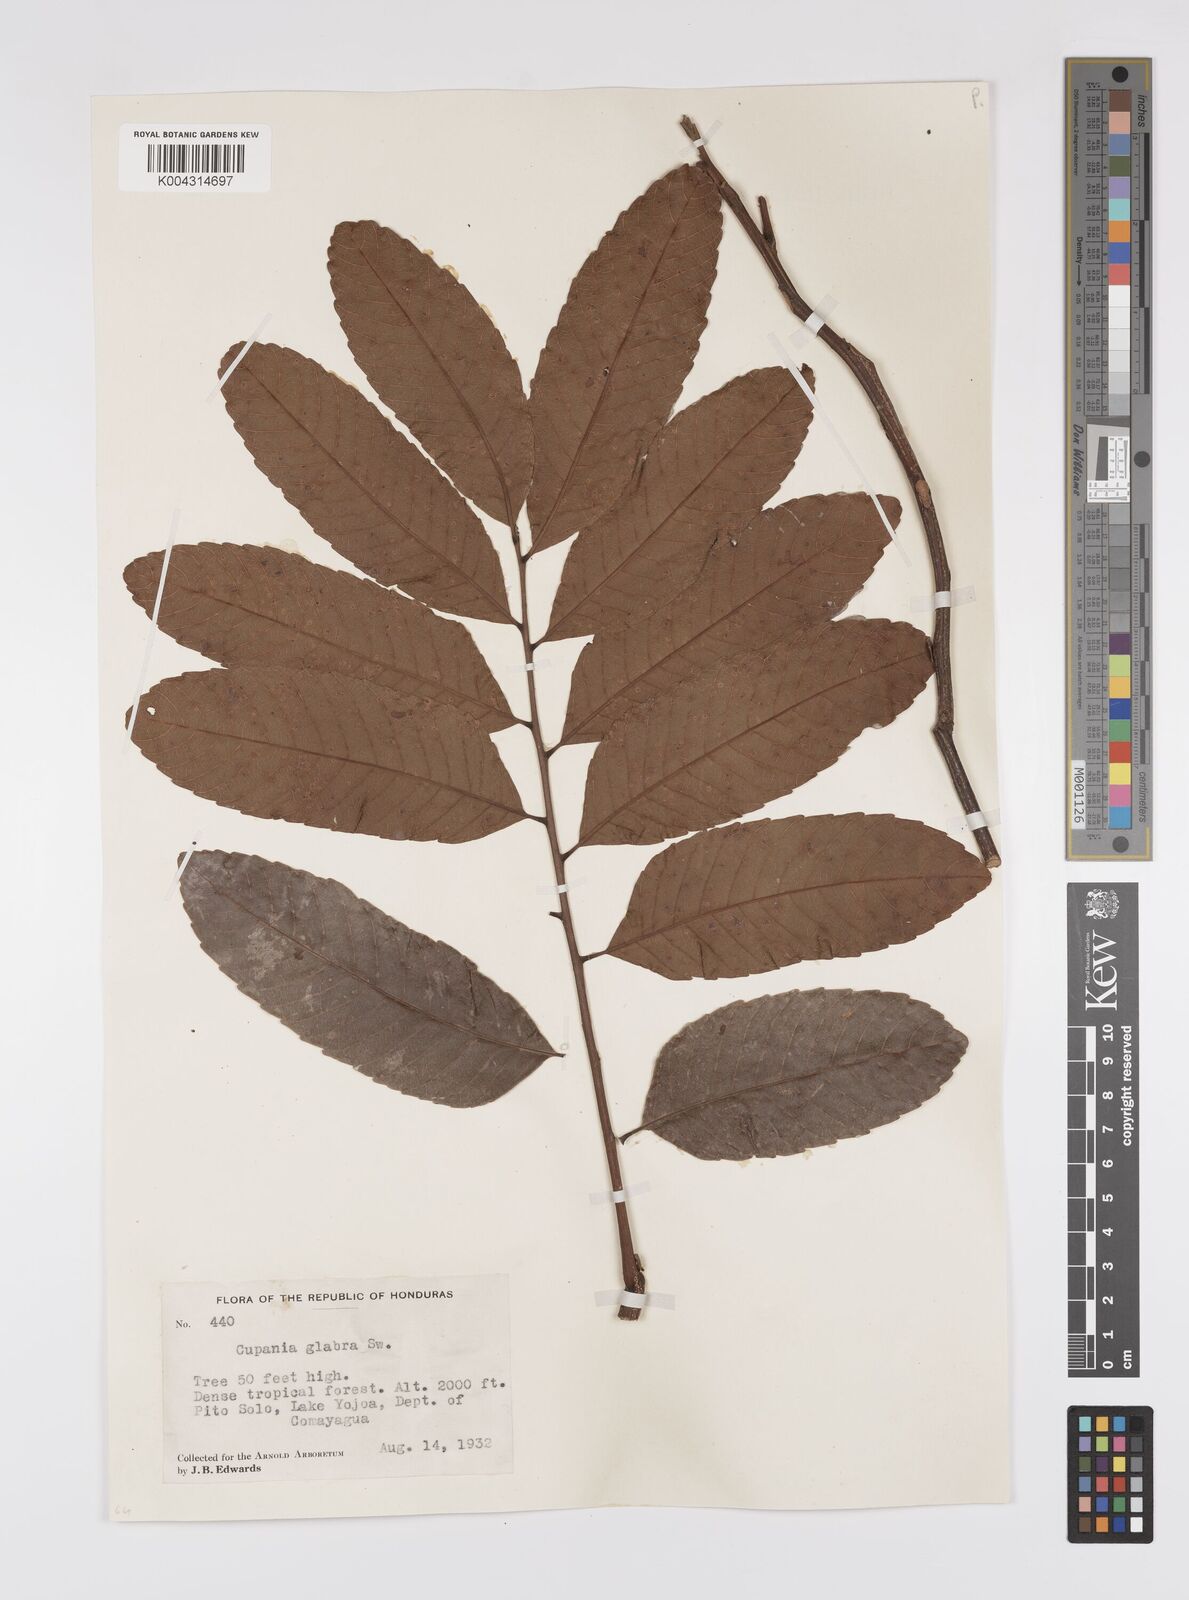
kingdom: Plantae
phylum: Tracheophyta
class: Magnoliopsida
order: Sapindales
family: Sapindaceae
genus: Cupania
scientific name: Cupania
